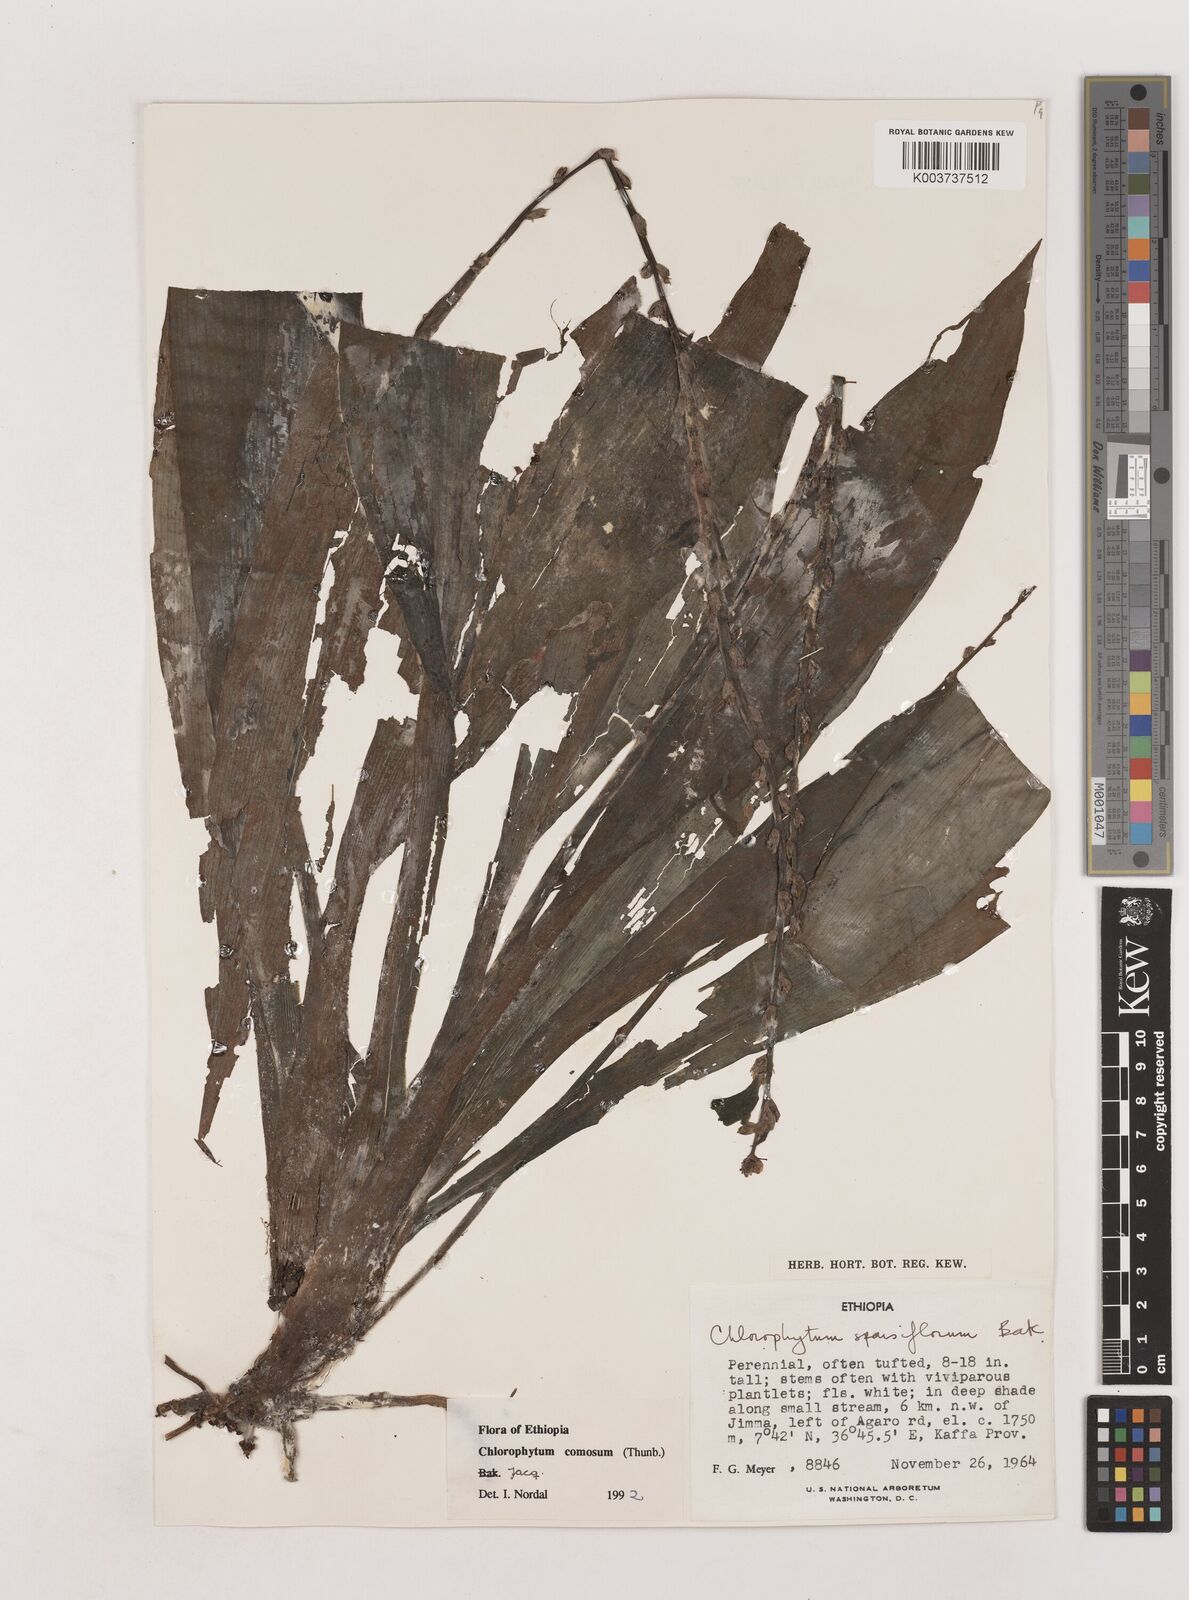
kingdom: Plantae
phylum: Tracheophyta
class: Liliopsida
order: Asparagales
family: Asparagaceae
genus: Chlorophytum
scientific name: Chlorophytum comosum
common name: Spider plant
